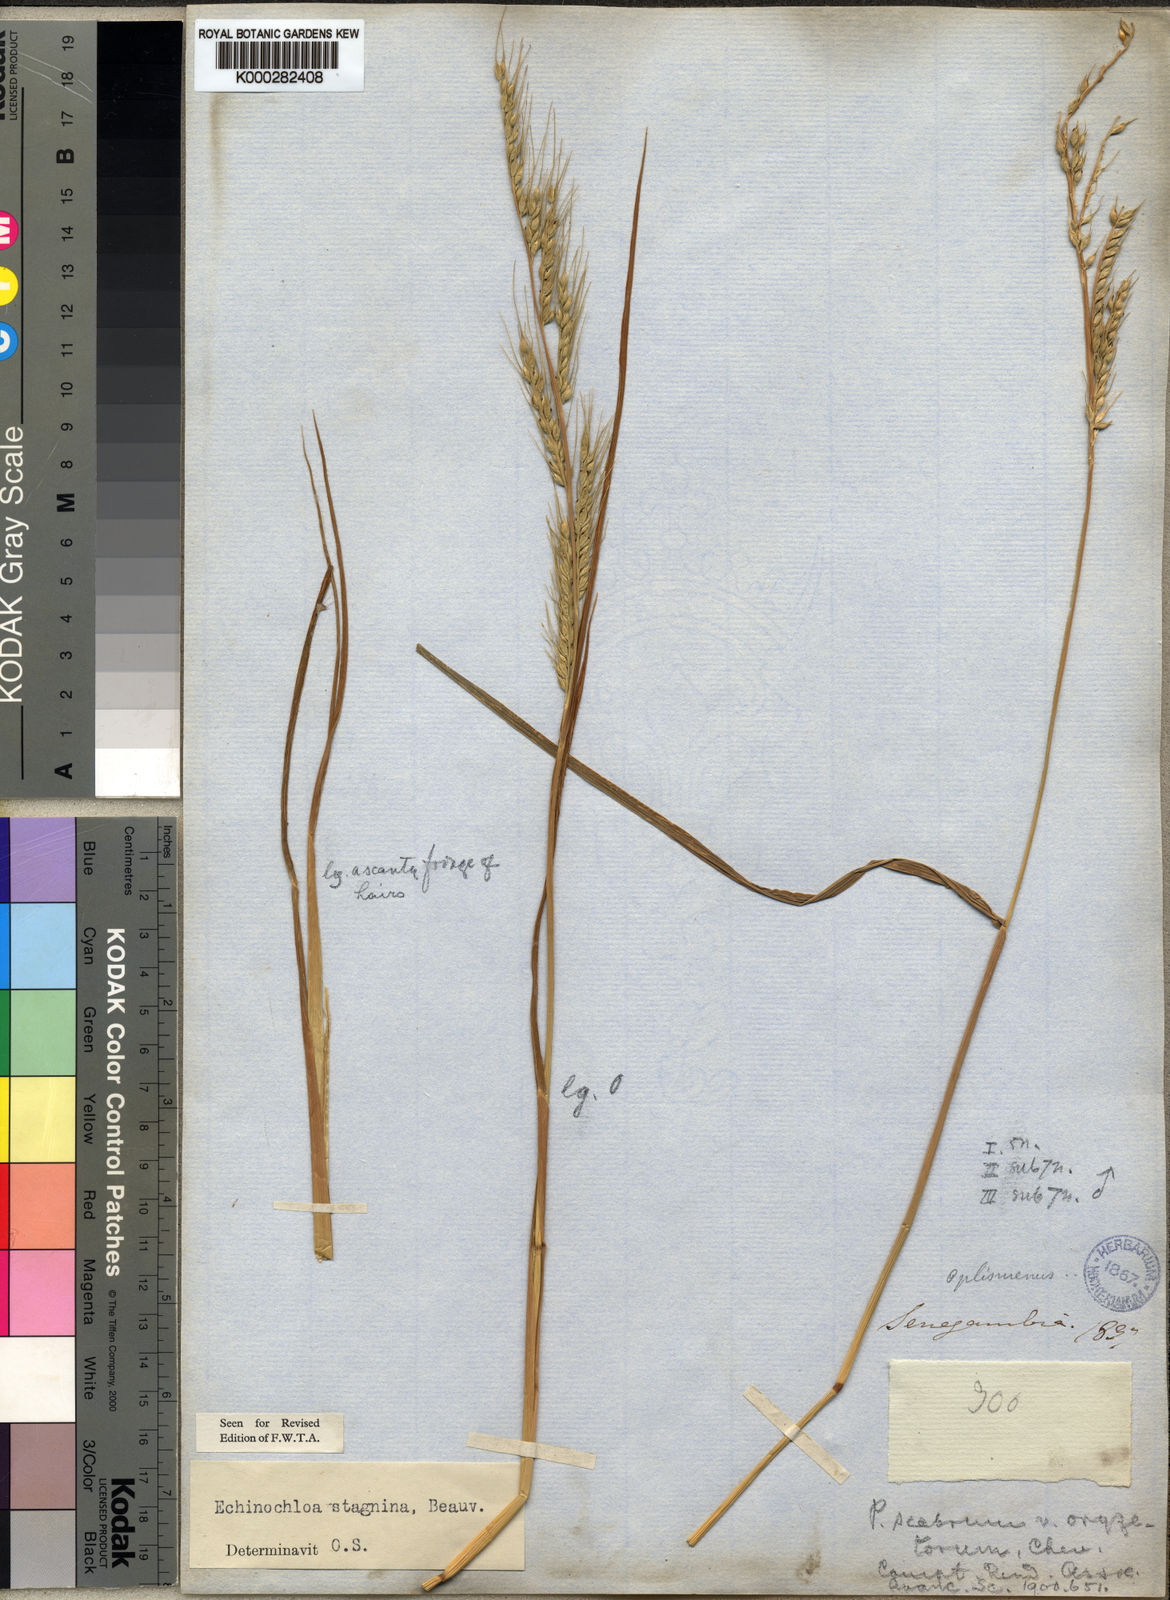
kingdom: Plantae
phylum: Tracheophyta
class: Liliopsida
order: Poales
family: Poaceae
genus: Echinochloa
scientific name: Echinochloa stagnina
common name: Burgu grass
